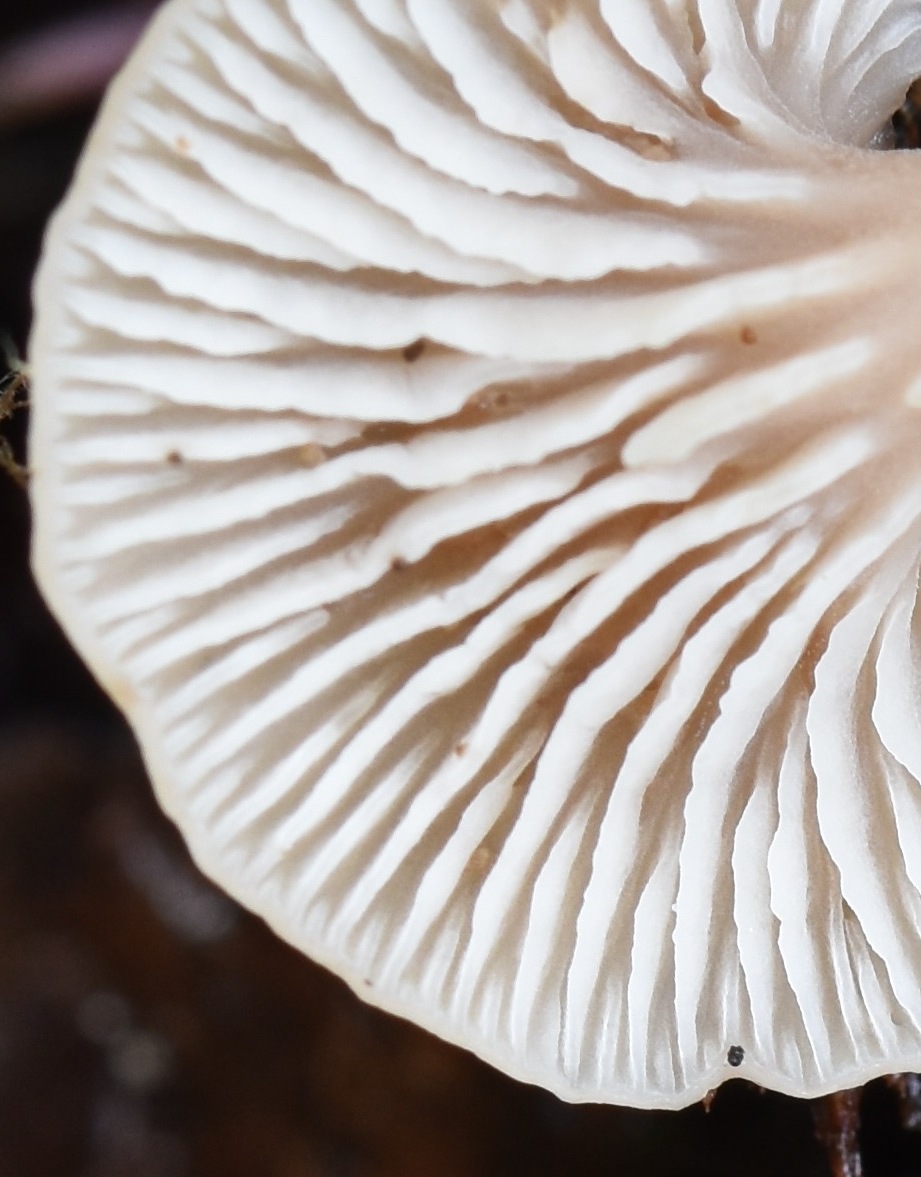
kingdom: Fungi
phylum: Basidiomycota
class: Agaricomycetes
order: Russulales
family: Auriscalpiaceae
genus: Lentinellus
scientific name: Lentinellus flabelliformis
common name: navle-savbladhat
